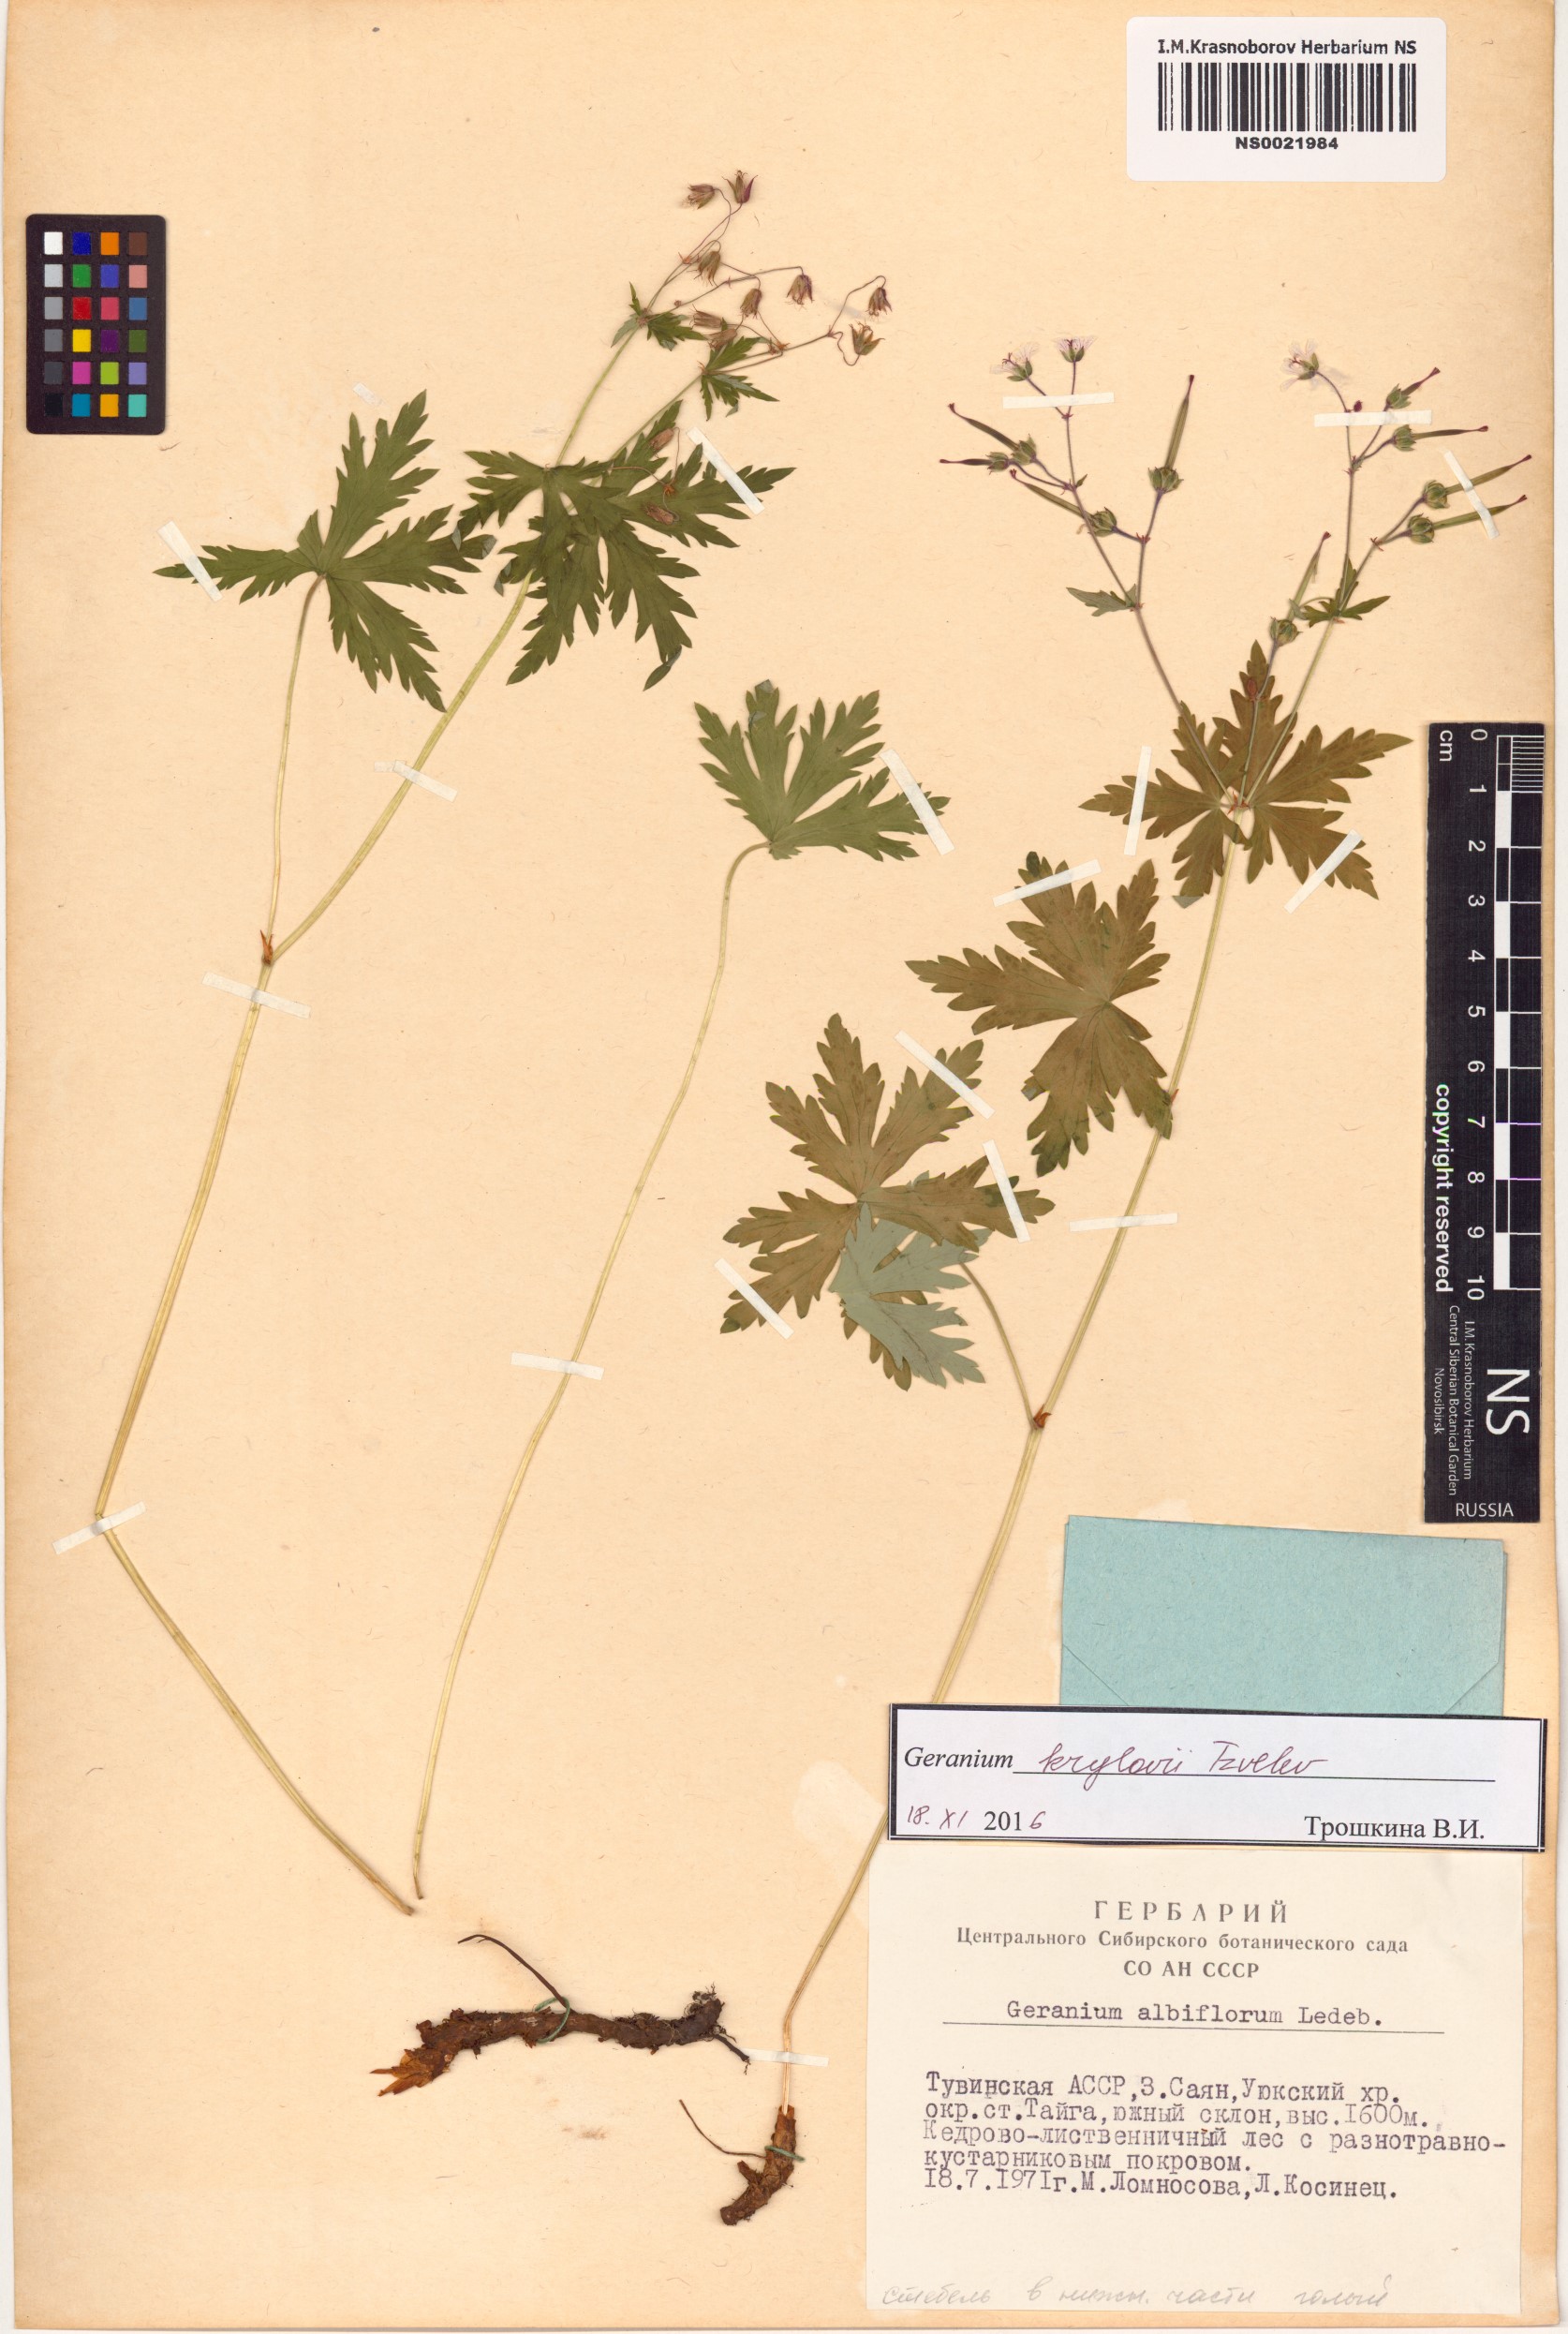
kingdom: Plantae
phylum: Tracheophyta
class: Magnoliopsida
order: Geraniales
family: Geraniaceae
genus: Geranium
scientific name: Geranium sylvaticum
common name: Wood crane's-bill
